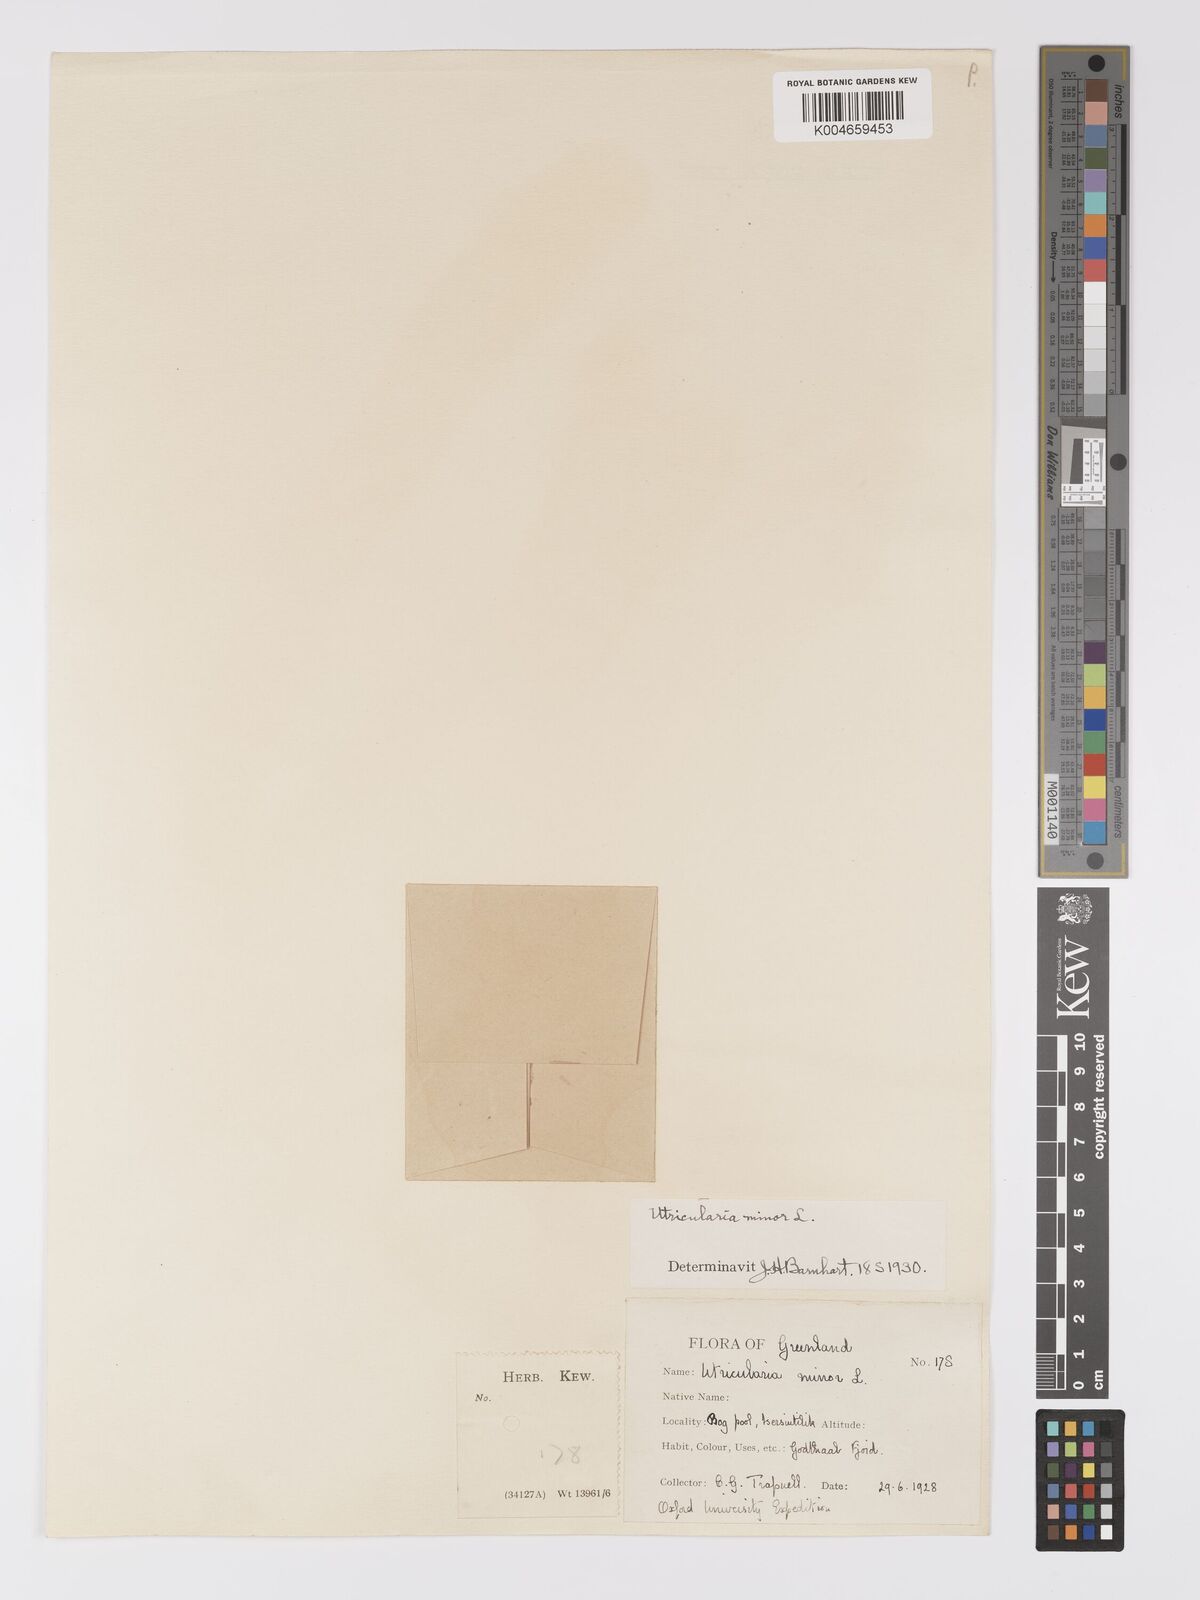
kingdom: Plantae
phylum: Tracheophyta
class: Magnoliopsida
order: Lamiales
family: Lentibulariaceae
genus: Utricularia
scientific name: Utricularia minor
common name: Lesser bladderwort
